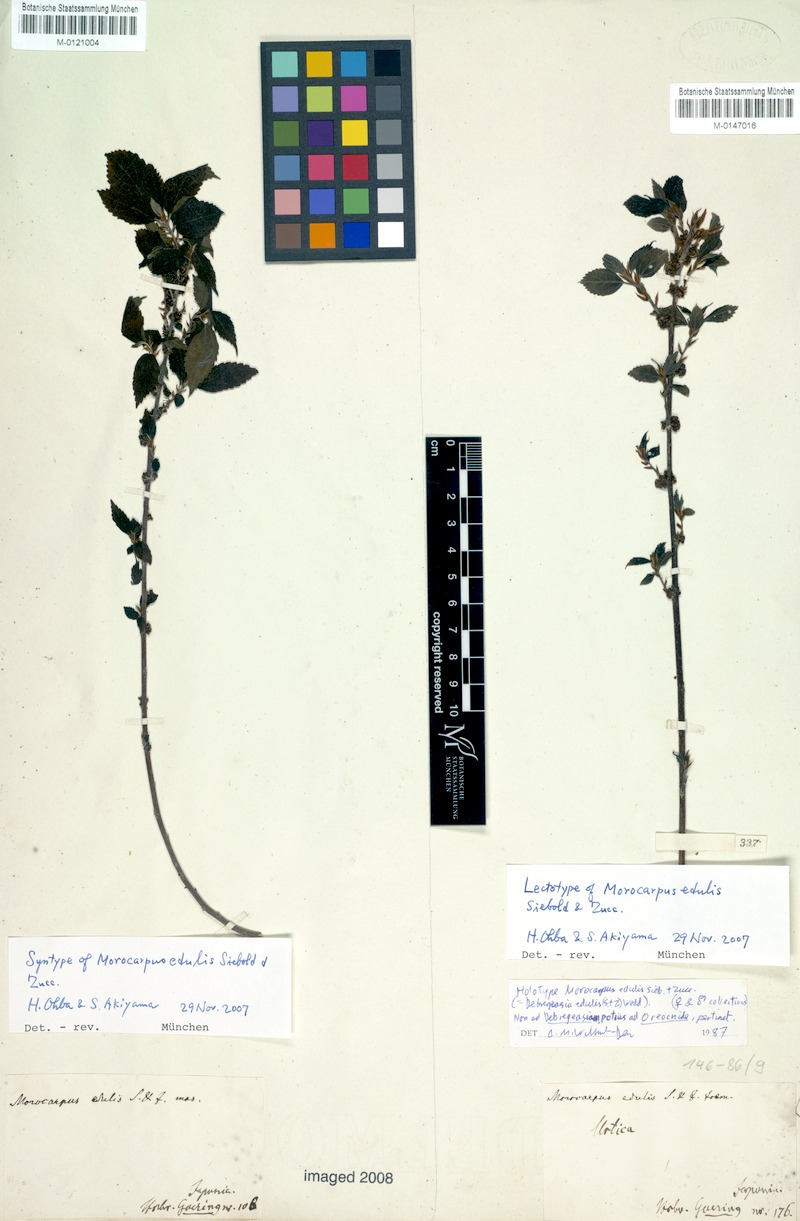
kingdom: Plantae
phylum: Tracheophyta
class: Magnoliopsida
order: Rosales
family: Urticaceae
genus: Debregeasia
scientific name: Debregeasia edulis
